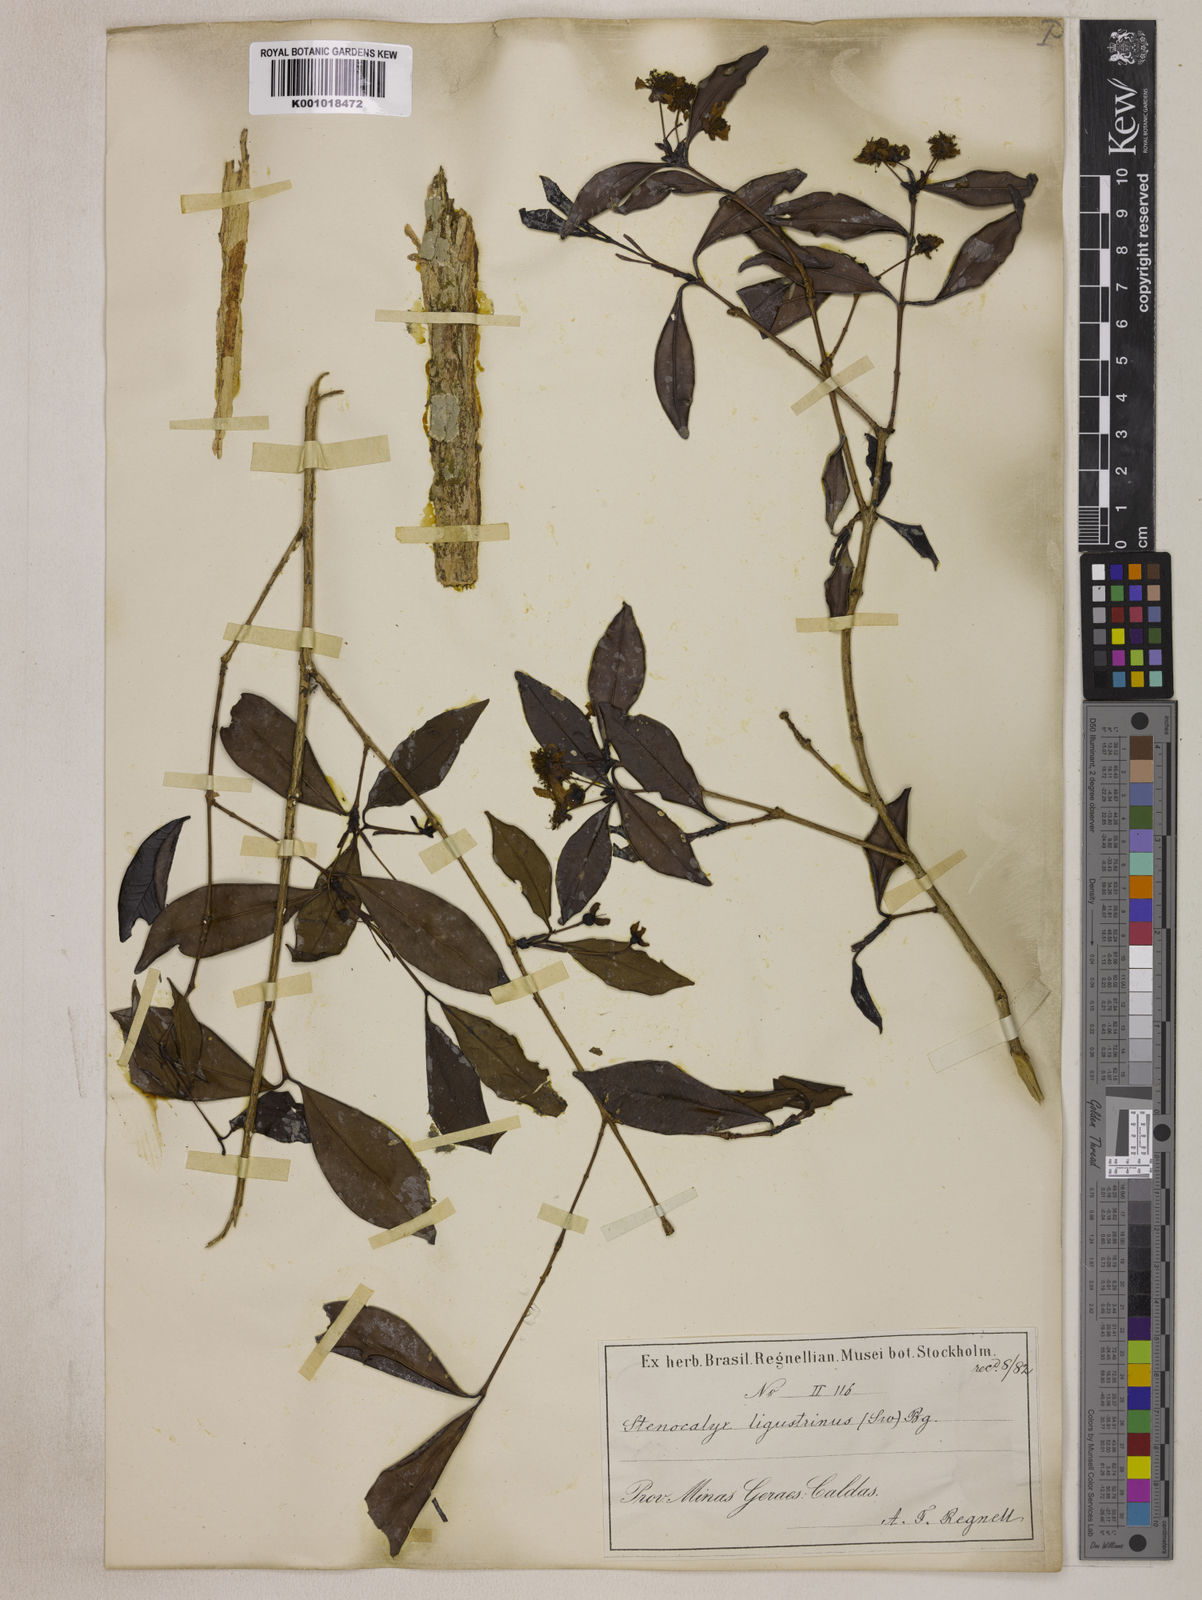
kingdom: Plantae
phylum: Tracheophyta
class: Magnoliopsida
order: Myrtales
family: Myrtaceae
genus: Eugenia
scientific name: Eugenia ligustrina
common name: Privet stopper
